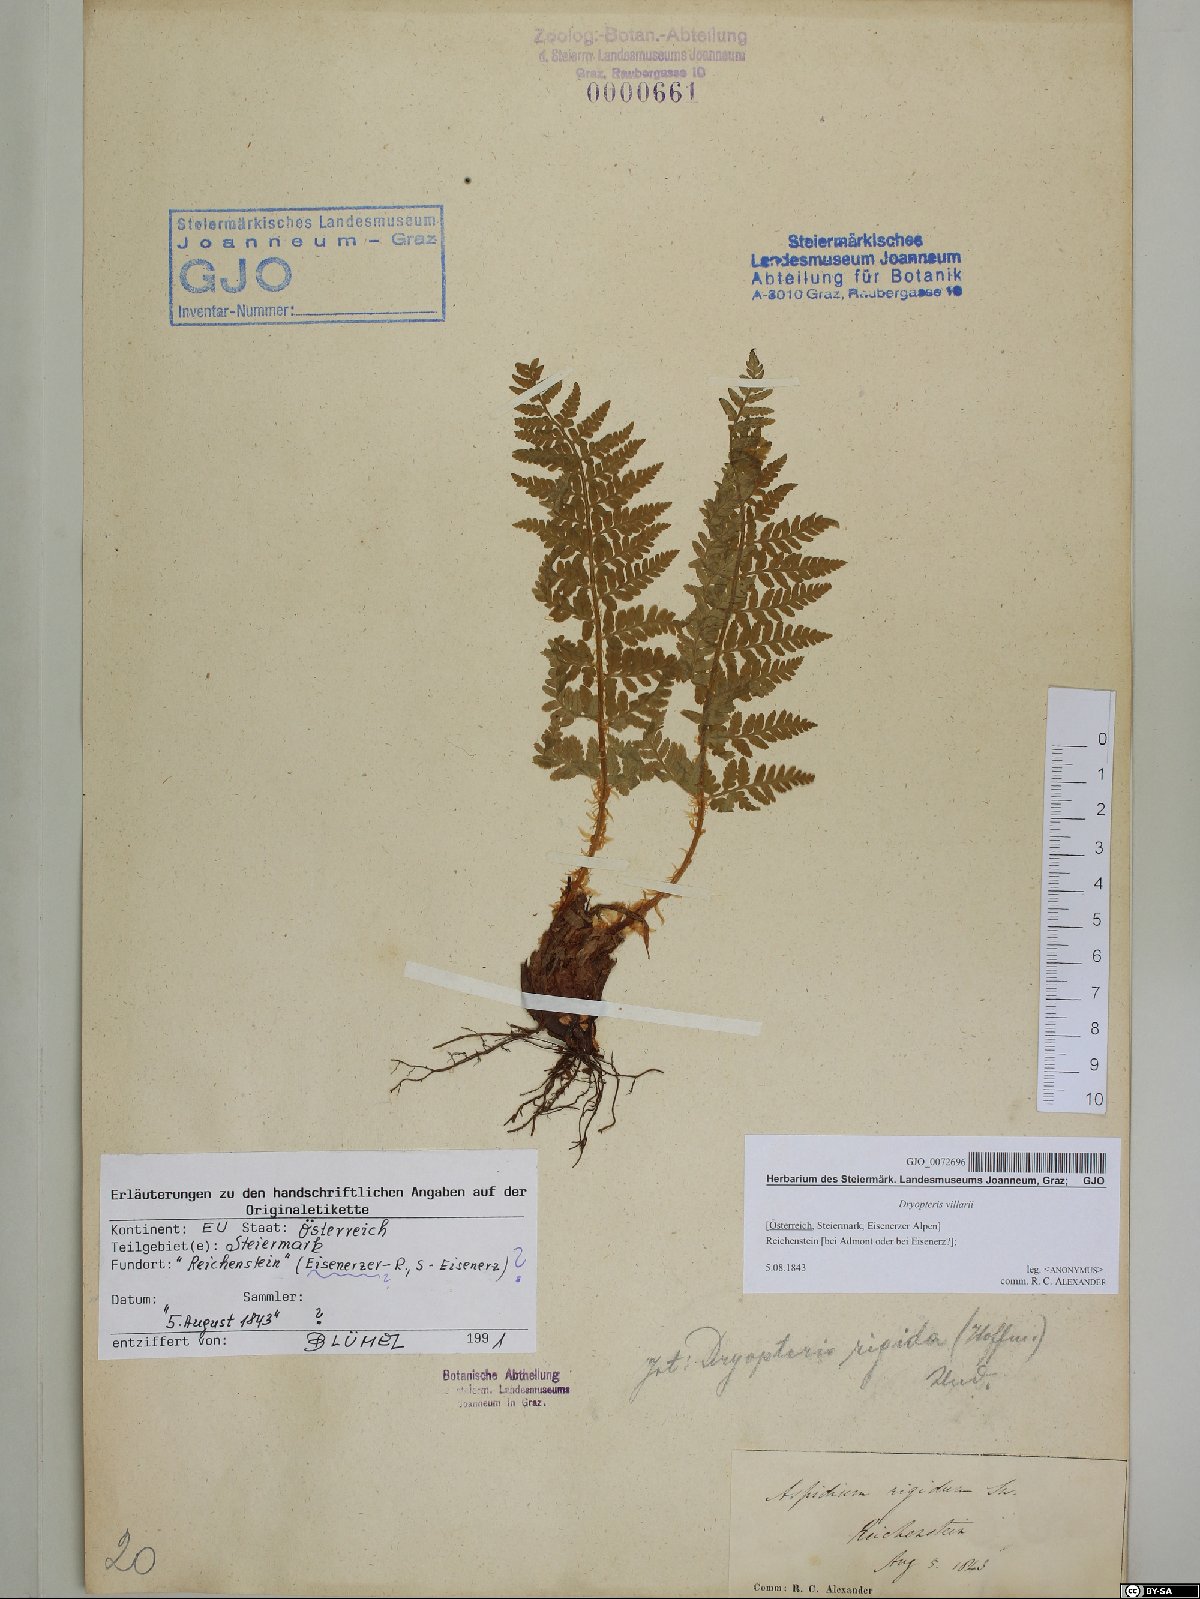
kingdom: Plantae
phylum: Tracheophyta
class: Polypodiopsida
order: Polypodiales
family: Dryopteridaceae
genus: Dryopteris
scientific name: Dryopteris villarii
